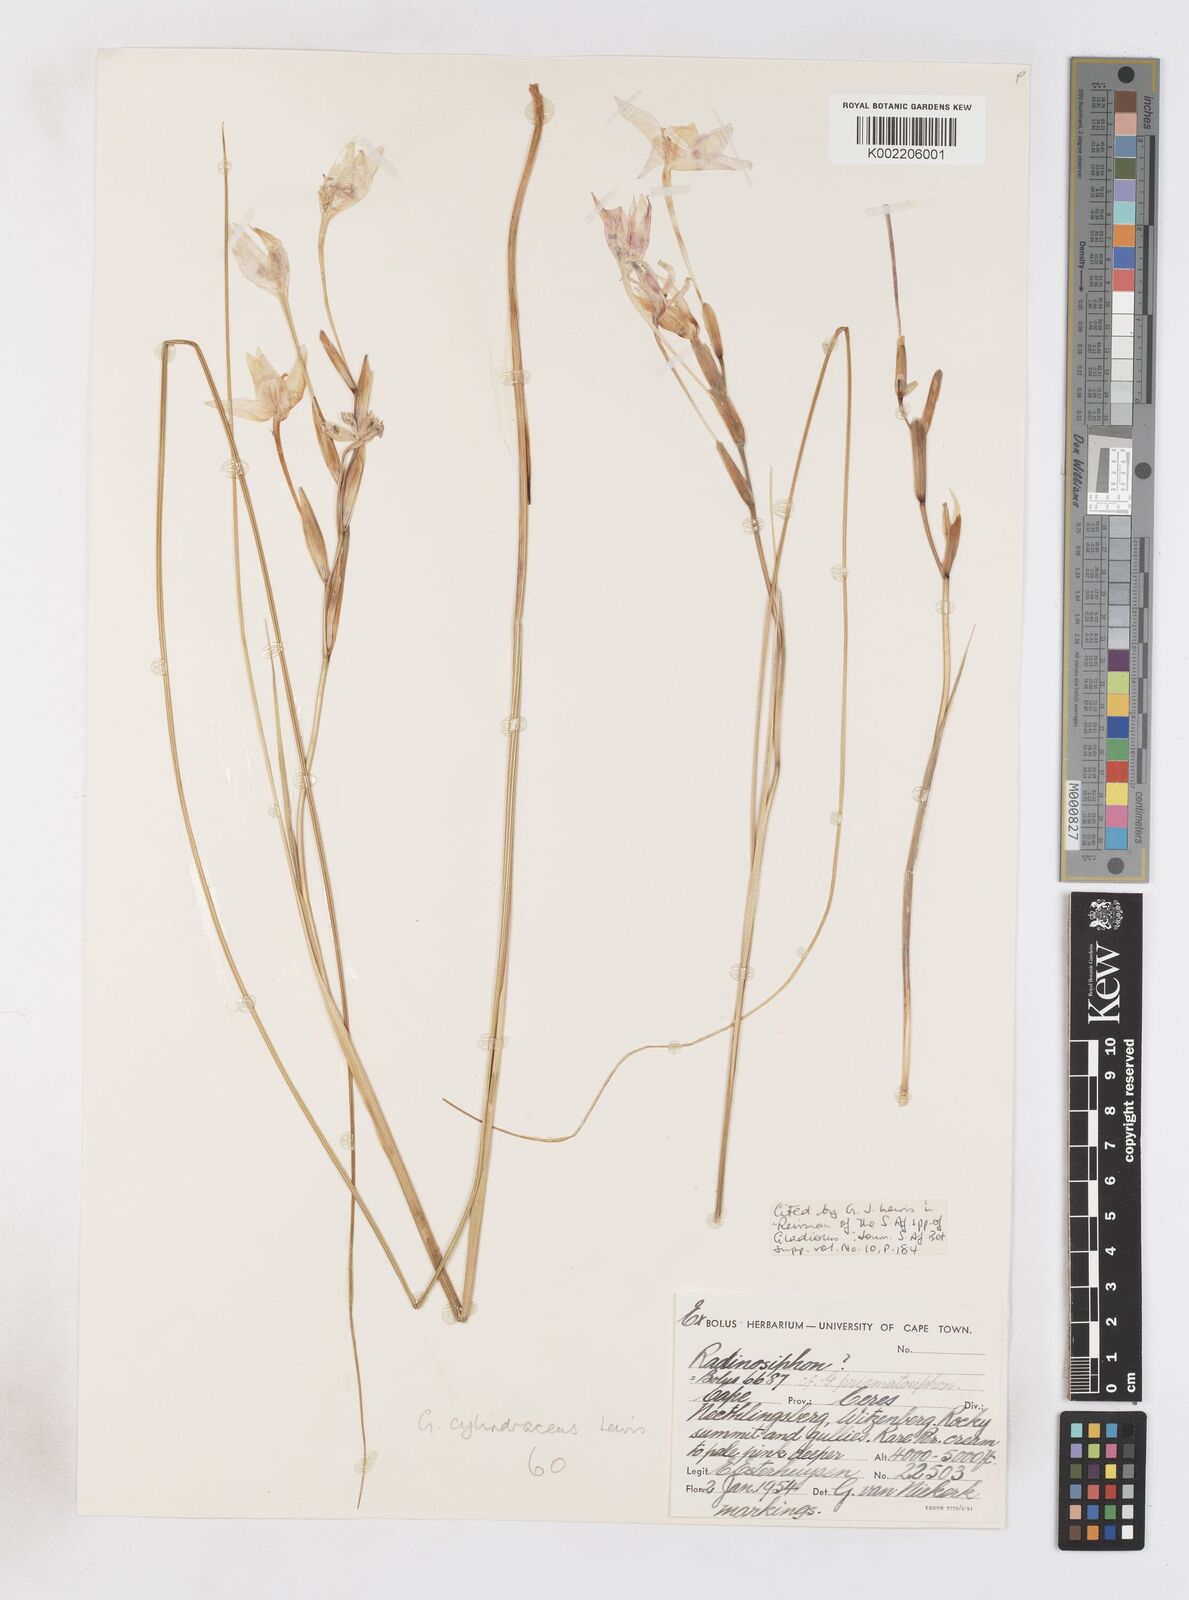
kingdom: Plantae
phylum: Tracheophyta
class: Liliopsida
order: Asparagales
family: Iridaceae
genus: Gladiolus
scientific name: Gladiolus cylindraceus
